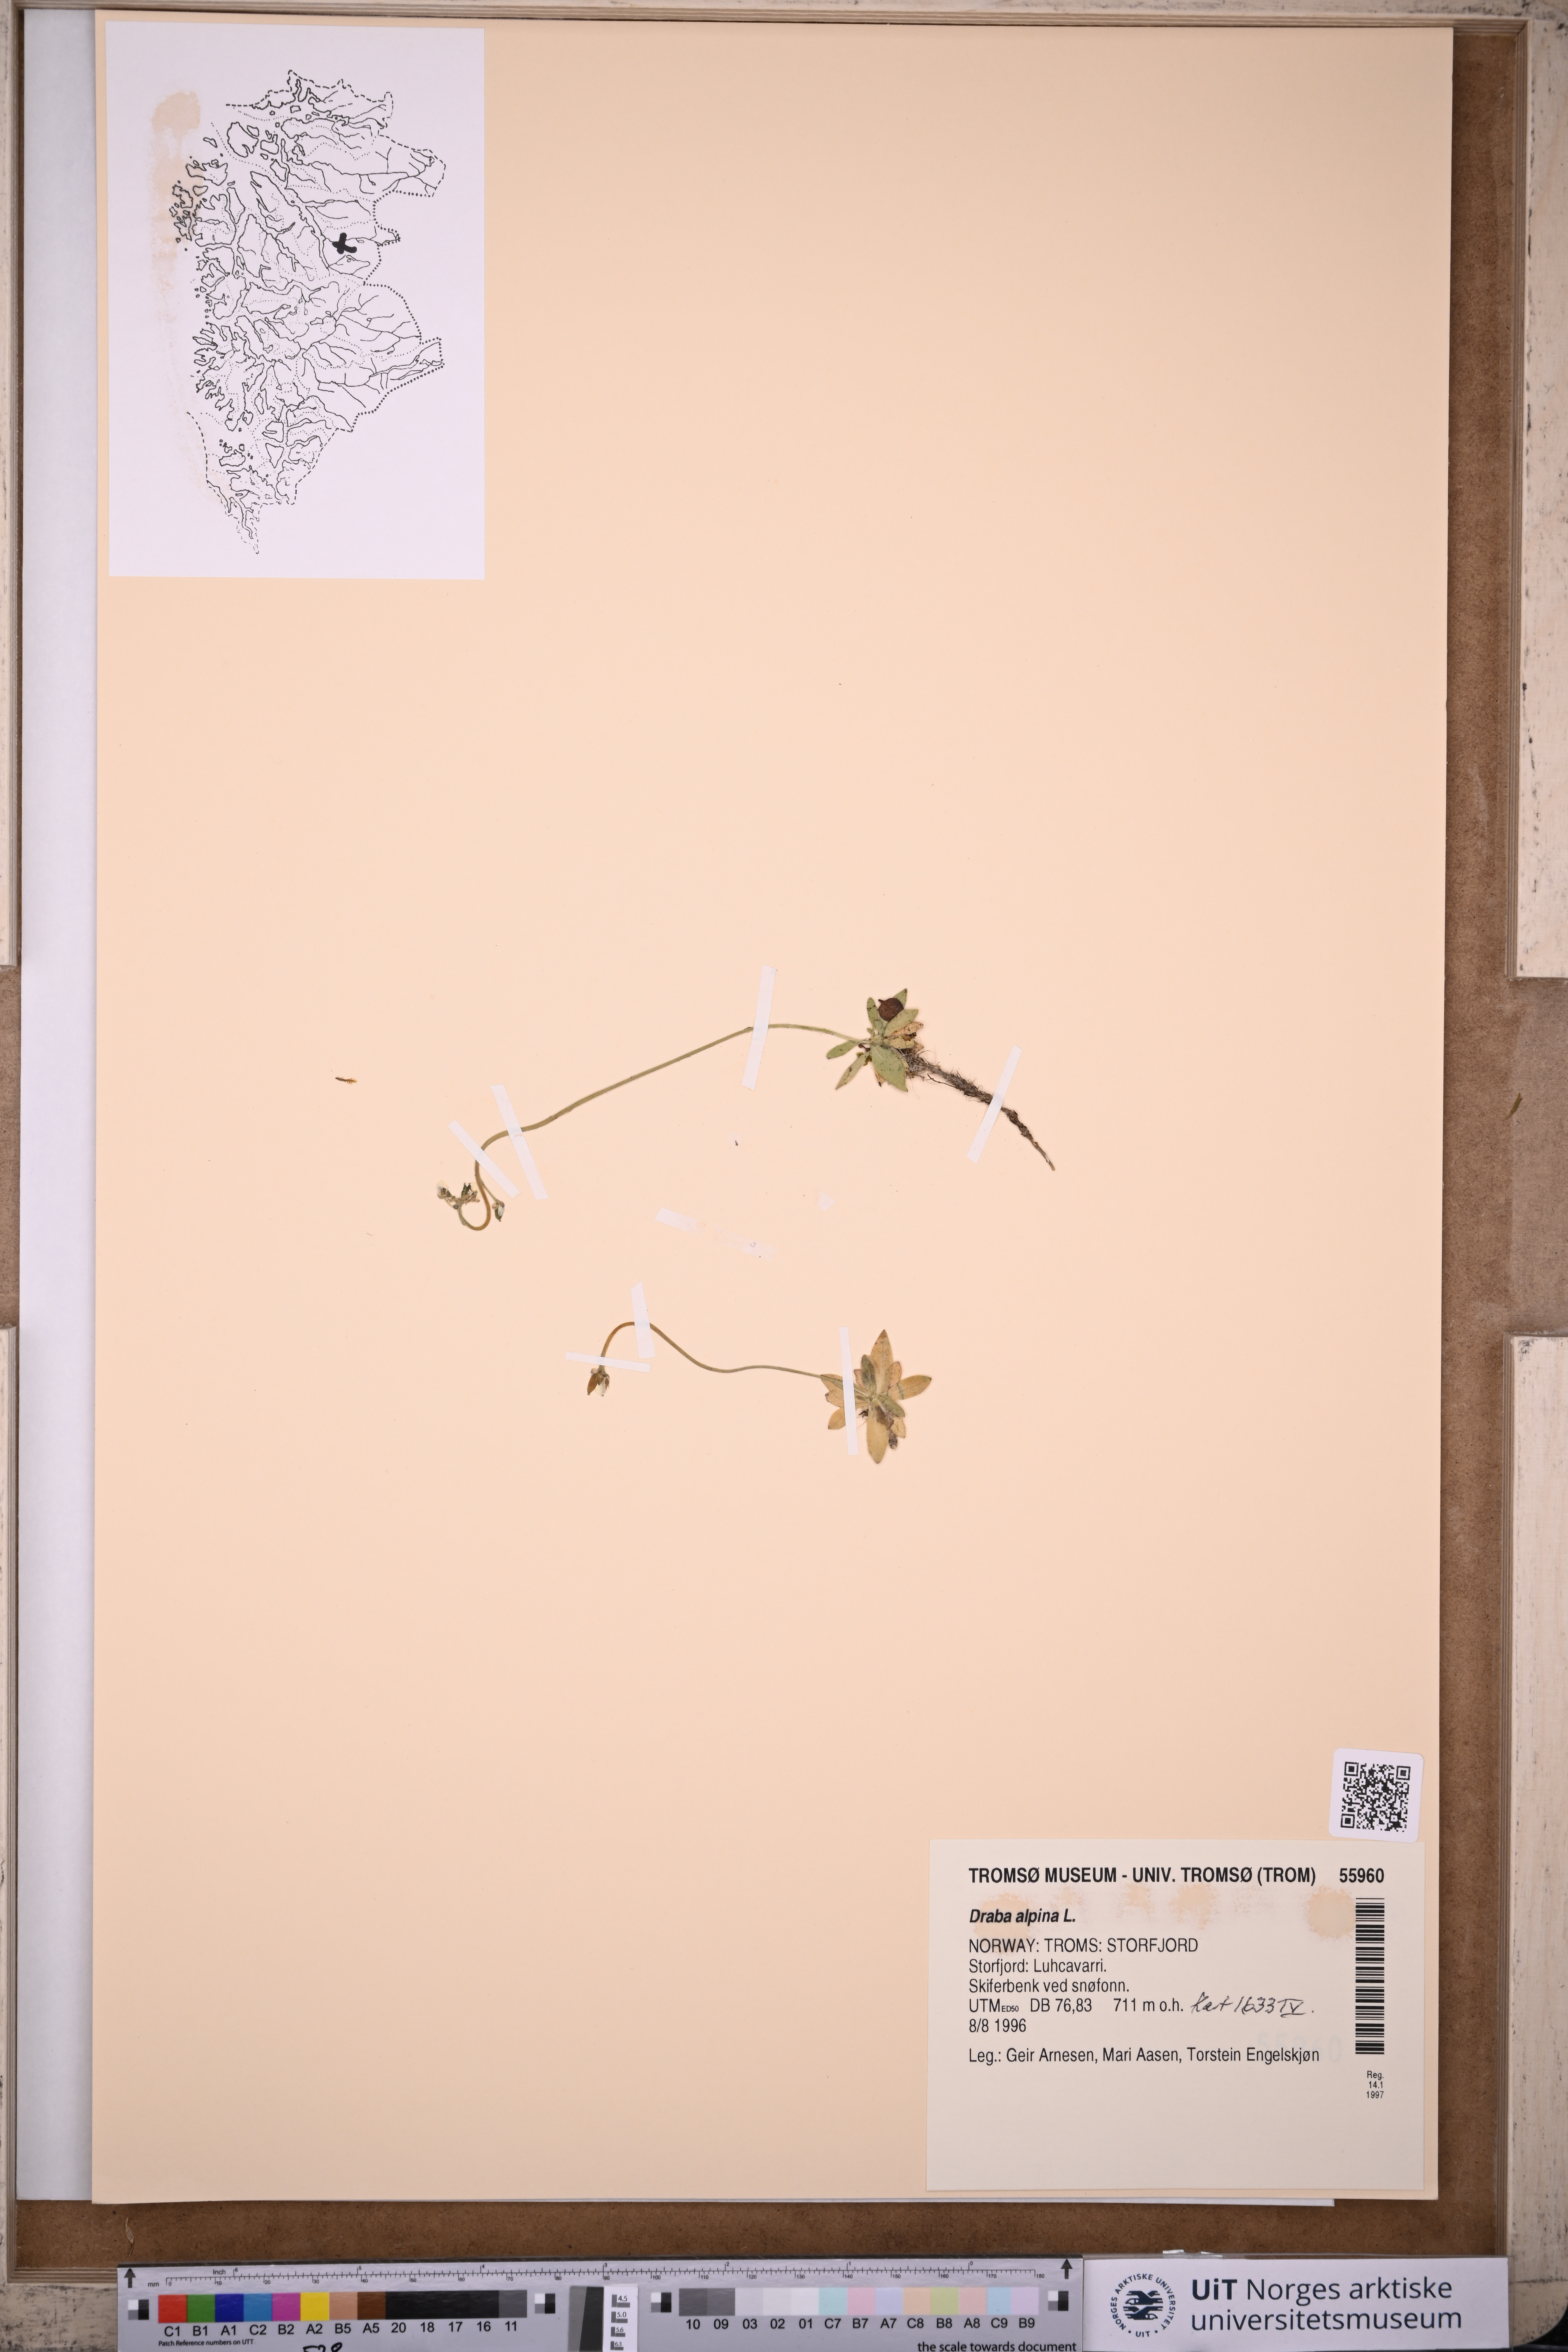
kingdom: Plantae
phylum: Tracheophyta
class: Magnoliopsida
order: Brassicales
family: Brassicaceae
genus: Draba
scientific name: Draba alpina
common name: Alpine draba
